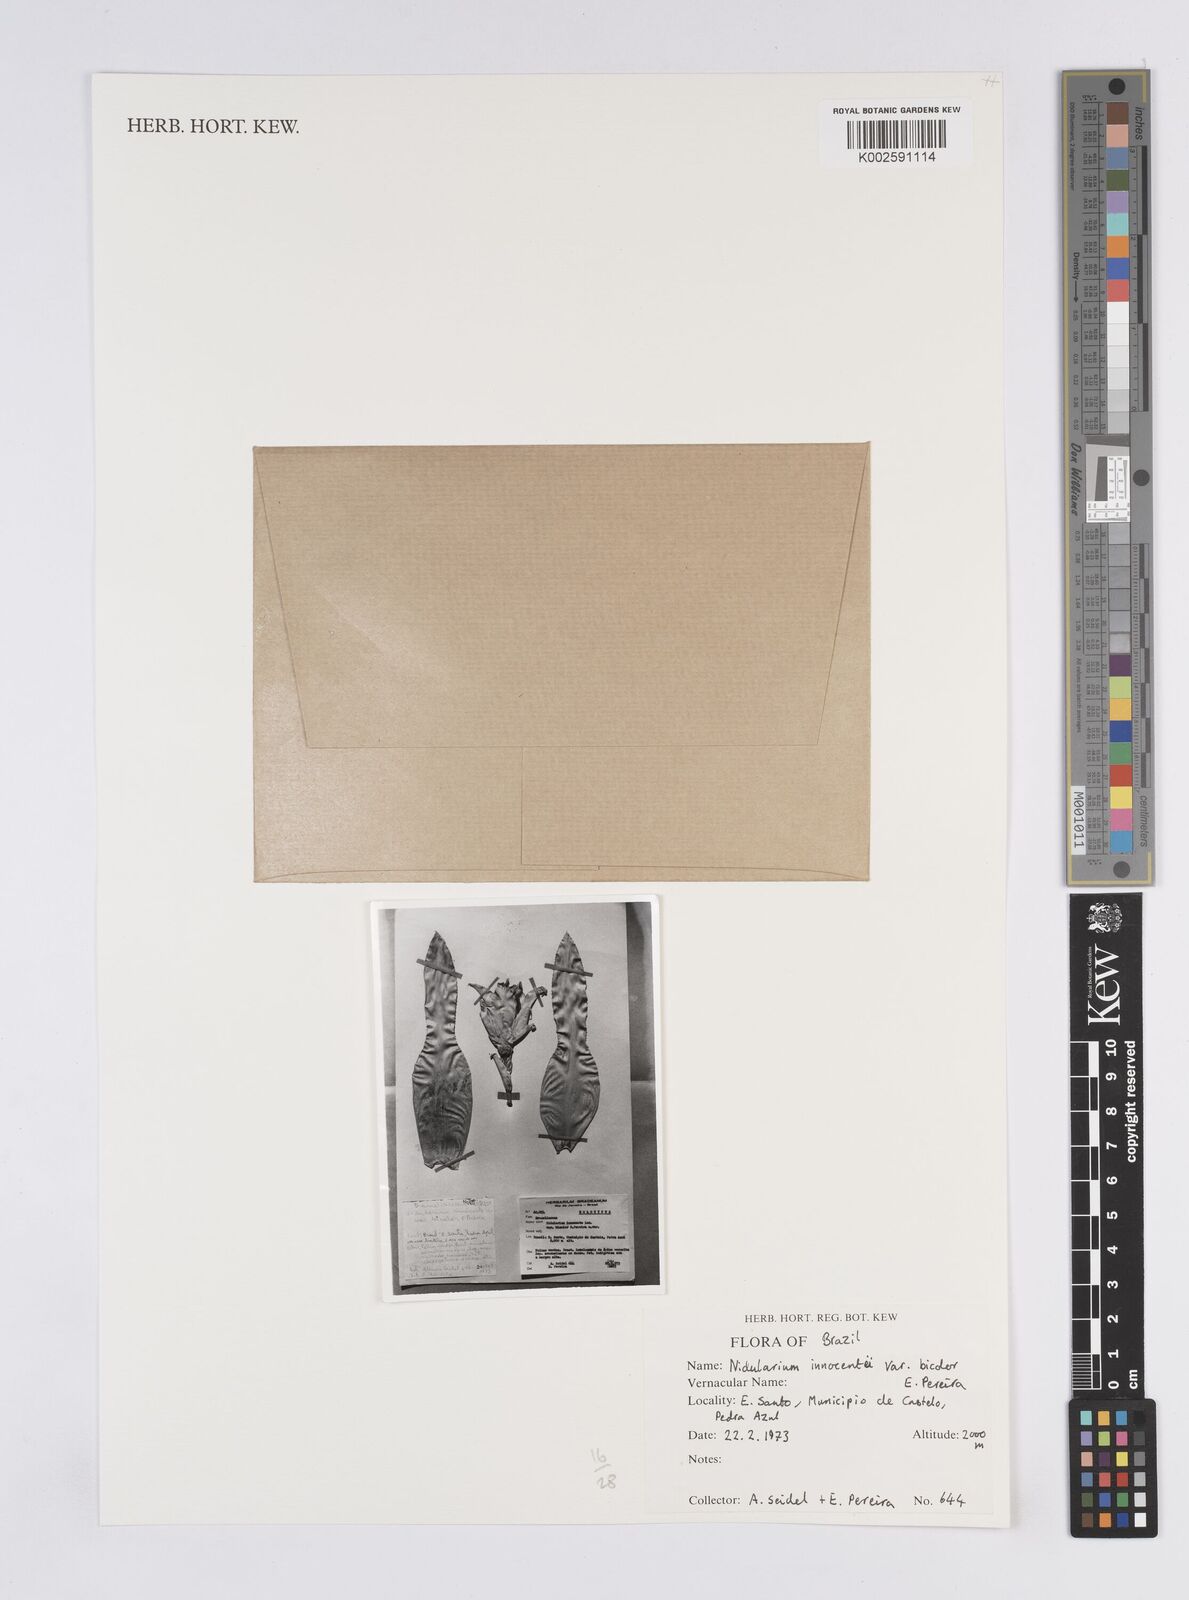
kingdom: Plantae
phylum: Tracheophyta
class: Liliopsida
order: Poales
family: Bromeliaceae
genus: Nidularium
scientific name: Nidularium innocentii
